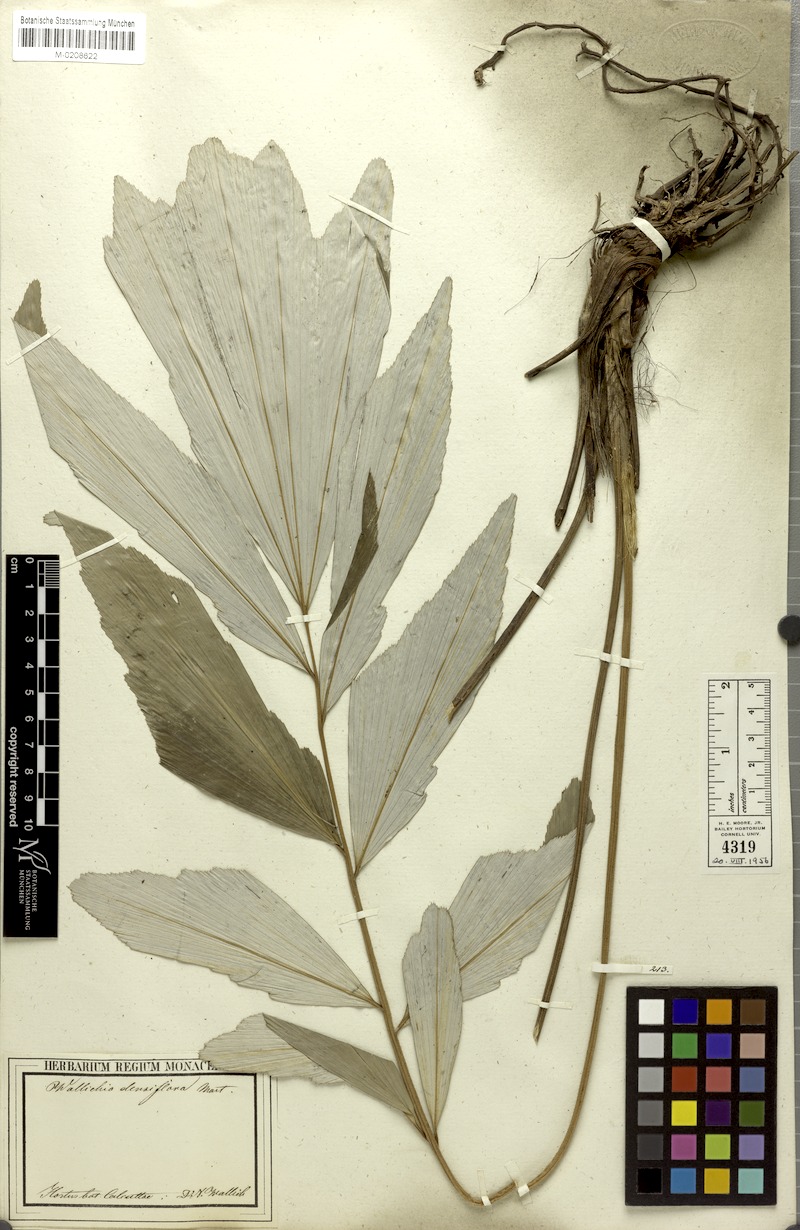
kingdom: Plantae
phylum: Tracheophyta
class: Liliopsida
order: Arecales
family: Arecaceae
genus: Wallichia
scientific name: Wallichia oblongifolia
